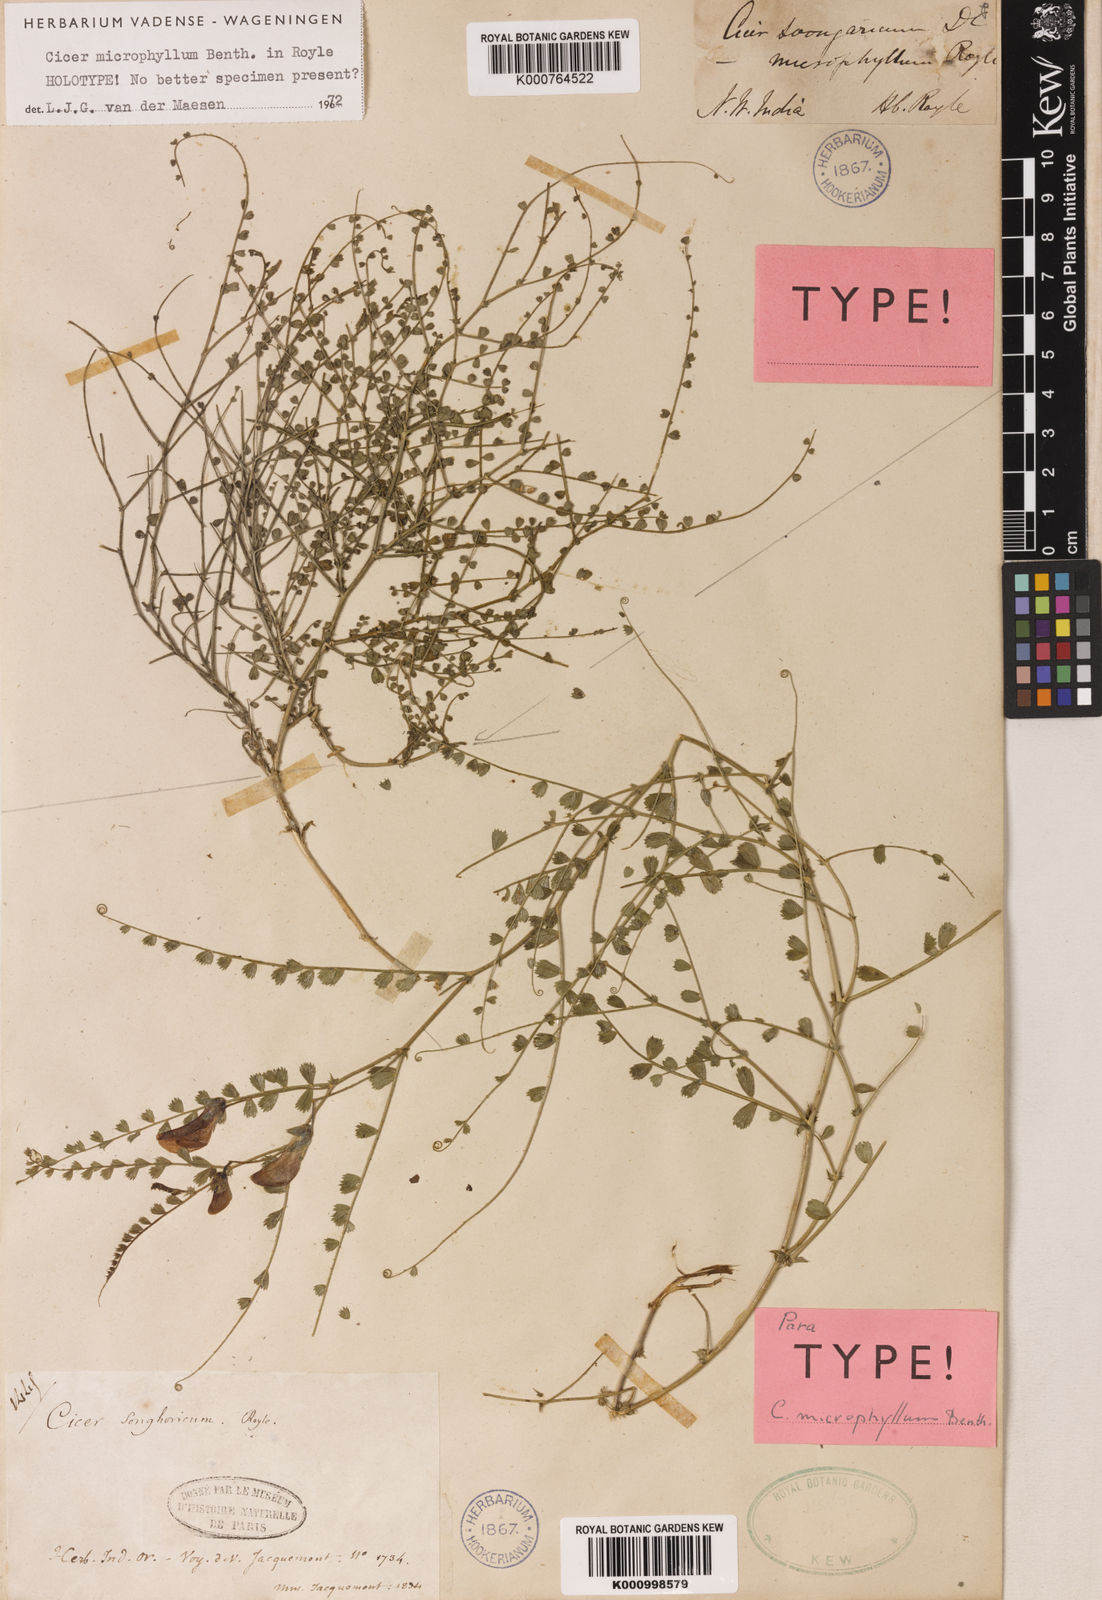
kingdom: Plantae
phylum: Tracheophyta
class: Magnoliopsida
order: Fabales
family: Fabaceae
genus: Cicer
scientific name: Cicer microphyllum
